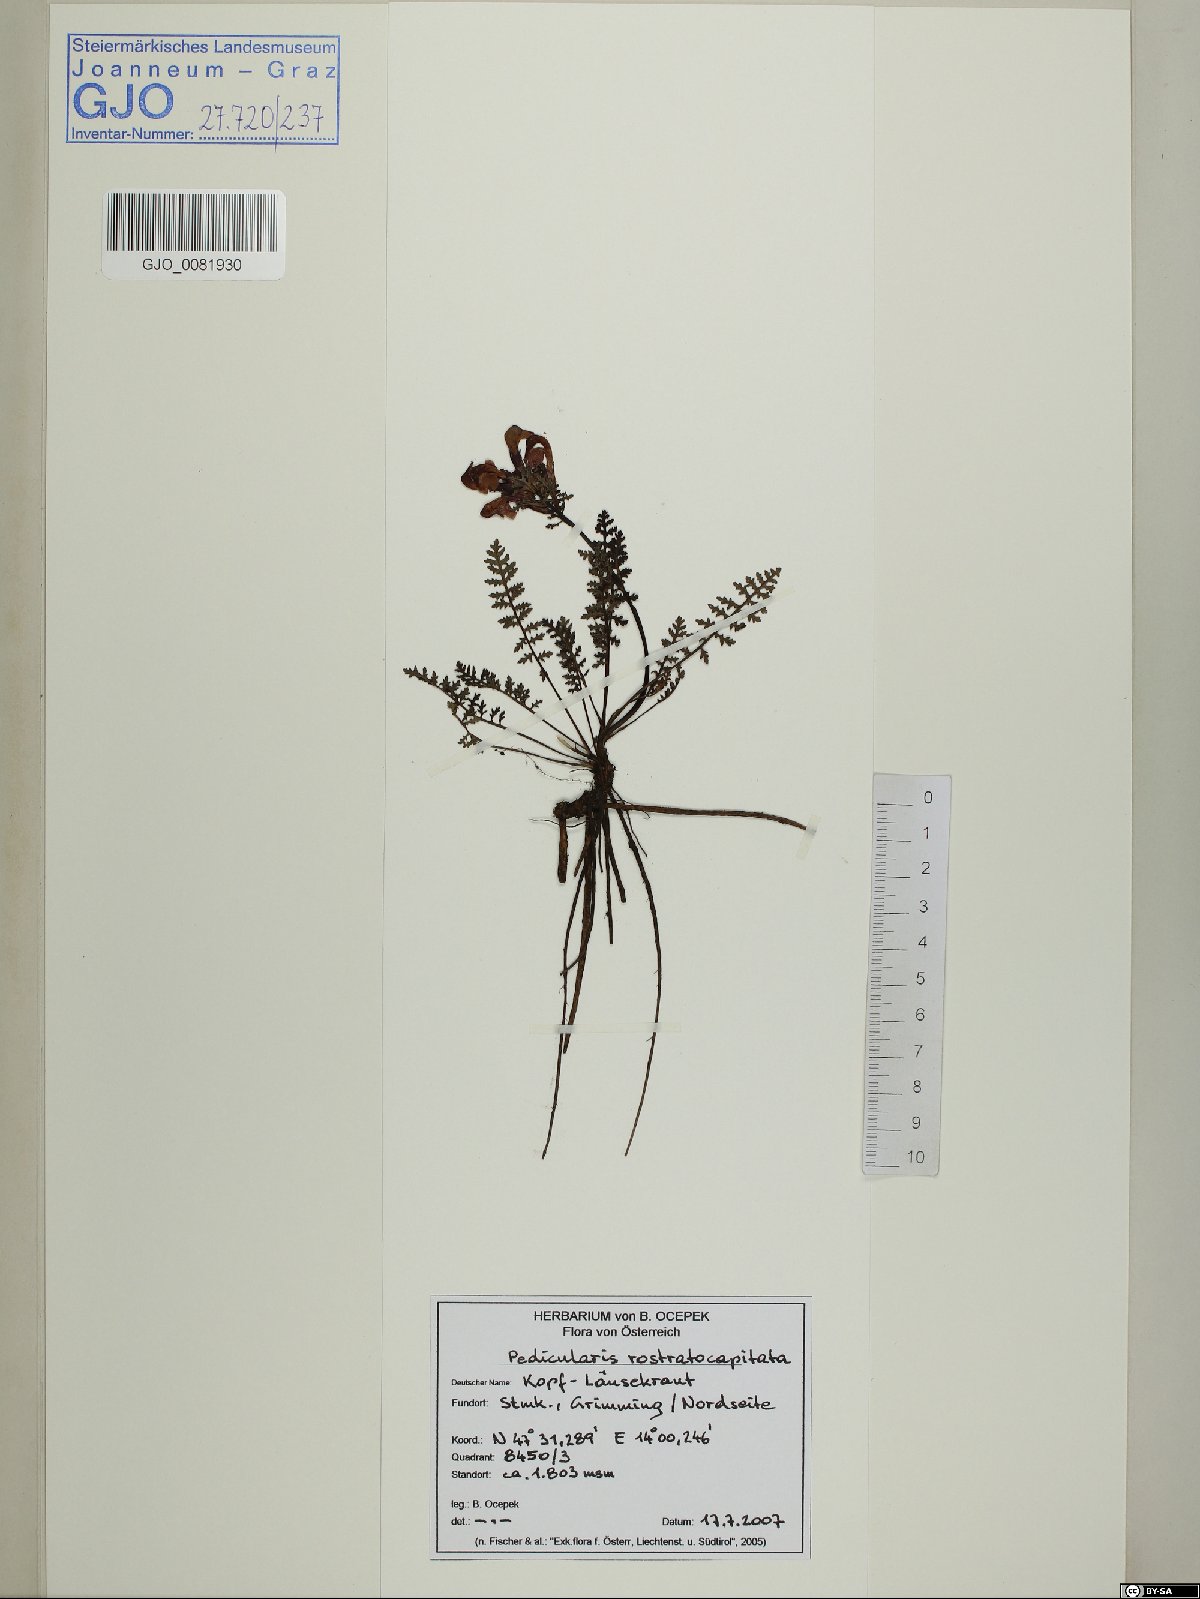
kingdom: Plantae
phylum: Tracheophyta
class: Magnoliopsida
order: Lamiales
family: Orobanchaceae
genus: Pedicularis
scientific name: Pedicularis rostratocapitata
